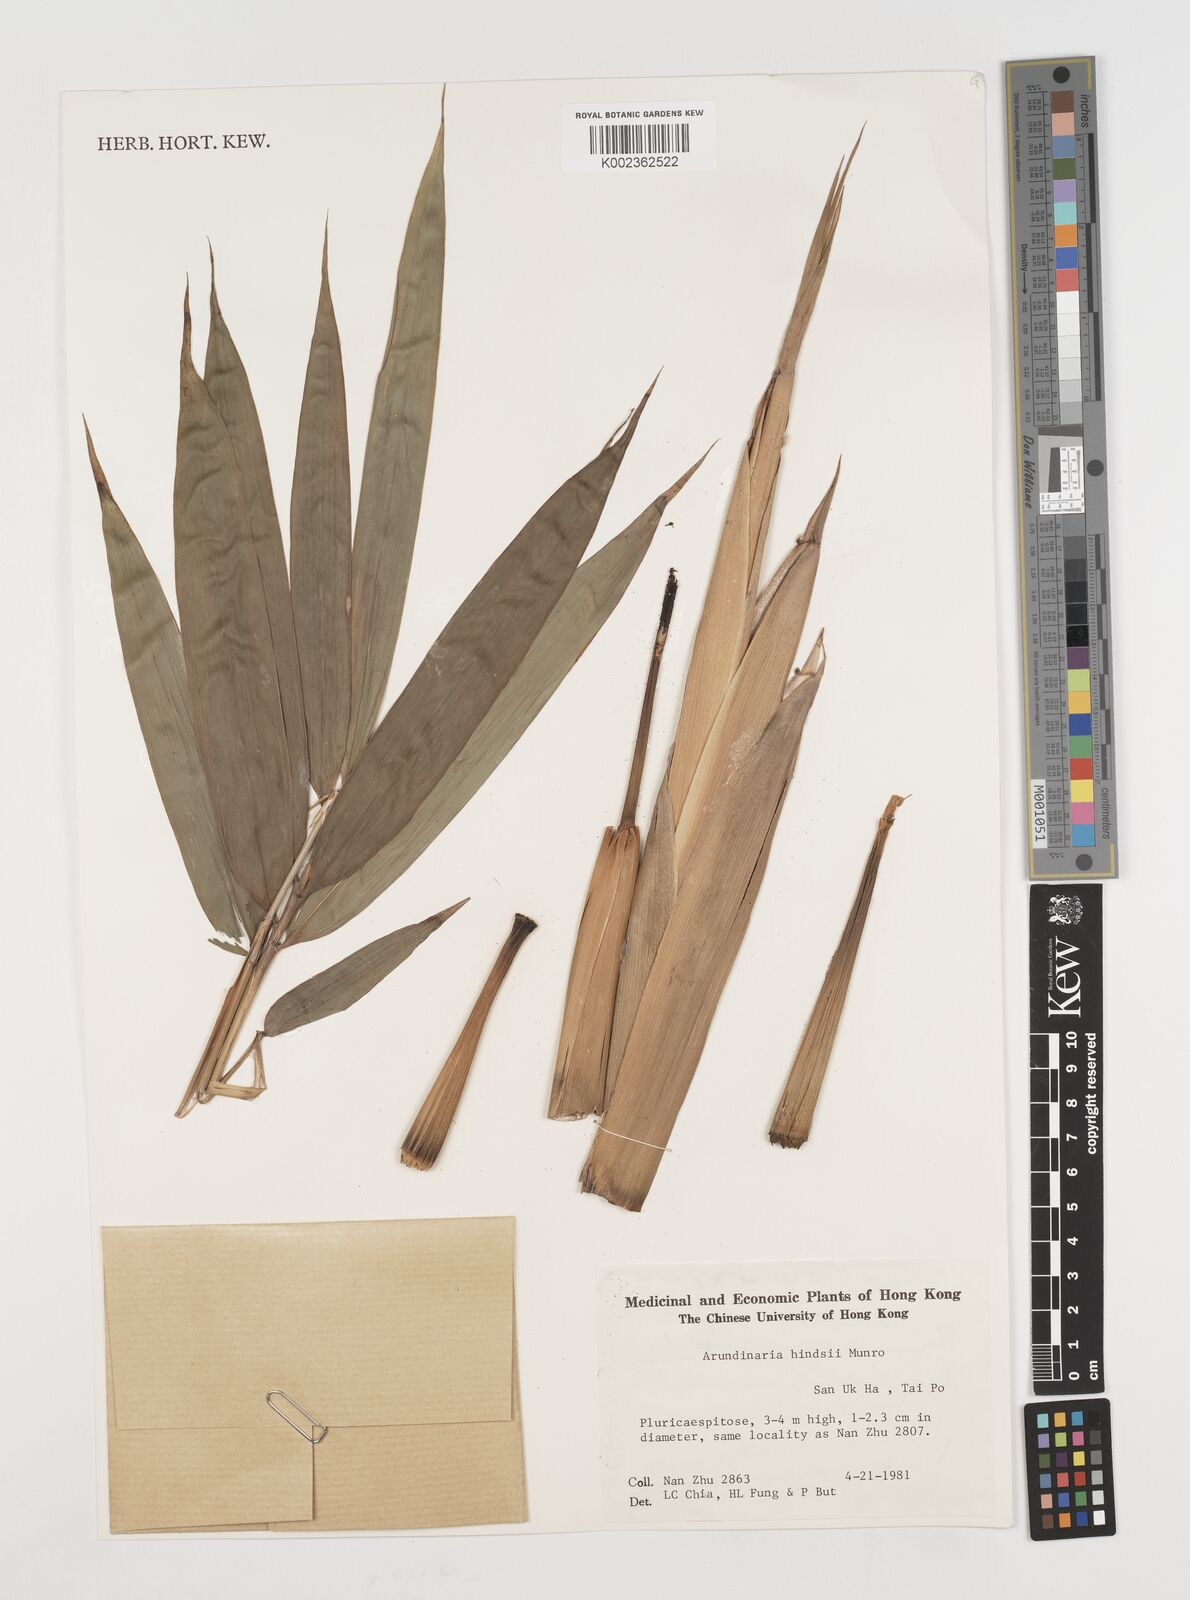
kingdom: Plantae
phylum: Tracheophyta
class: Liliopsida
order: Poales
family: Poaceae
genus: Pseudosasa
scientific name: Pseudosasa hindsii
